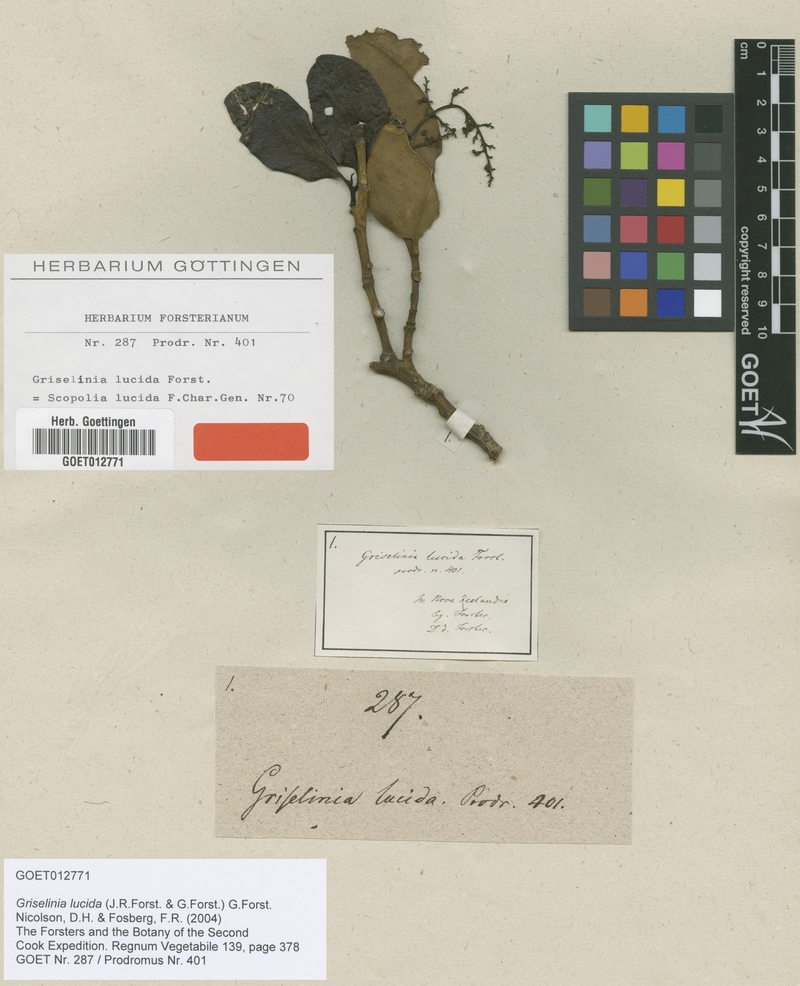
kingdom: Plantae
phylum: Tracheophyta
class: Magnoliopsida
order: Apiales
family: Griseliniaceae
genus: Griselinia
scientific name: Griselinia lucida
